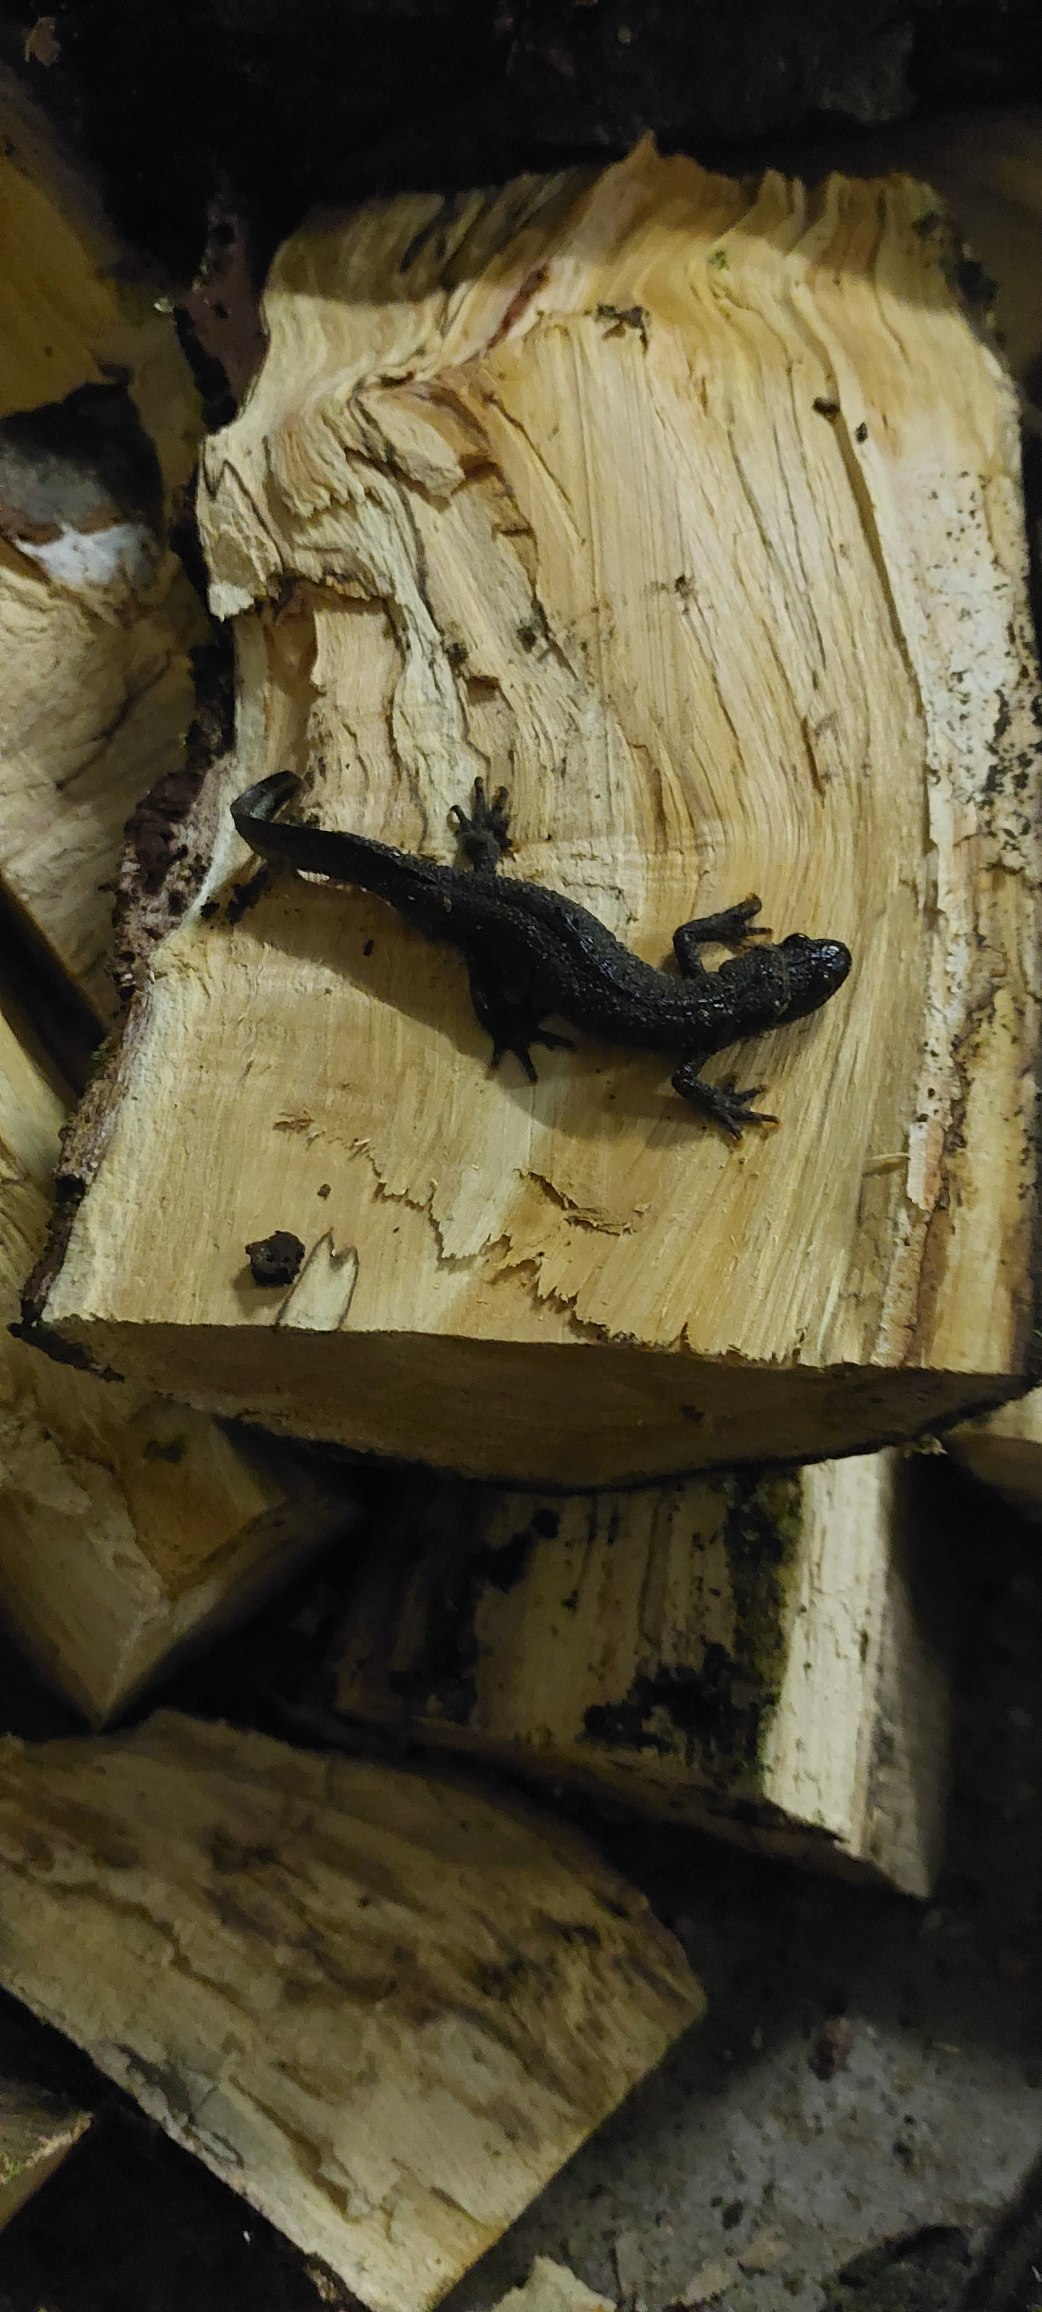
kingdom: Animalia
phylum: Chordata
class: Amphibia
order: Caudata
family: Salamandridae
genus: Triturus
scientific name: Triturus cristatus
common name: Stor vandsalamander
